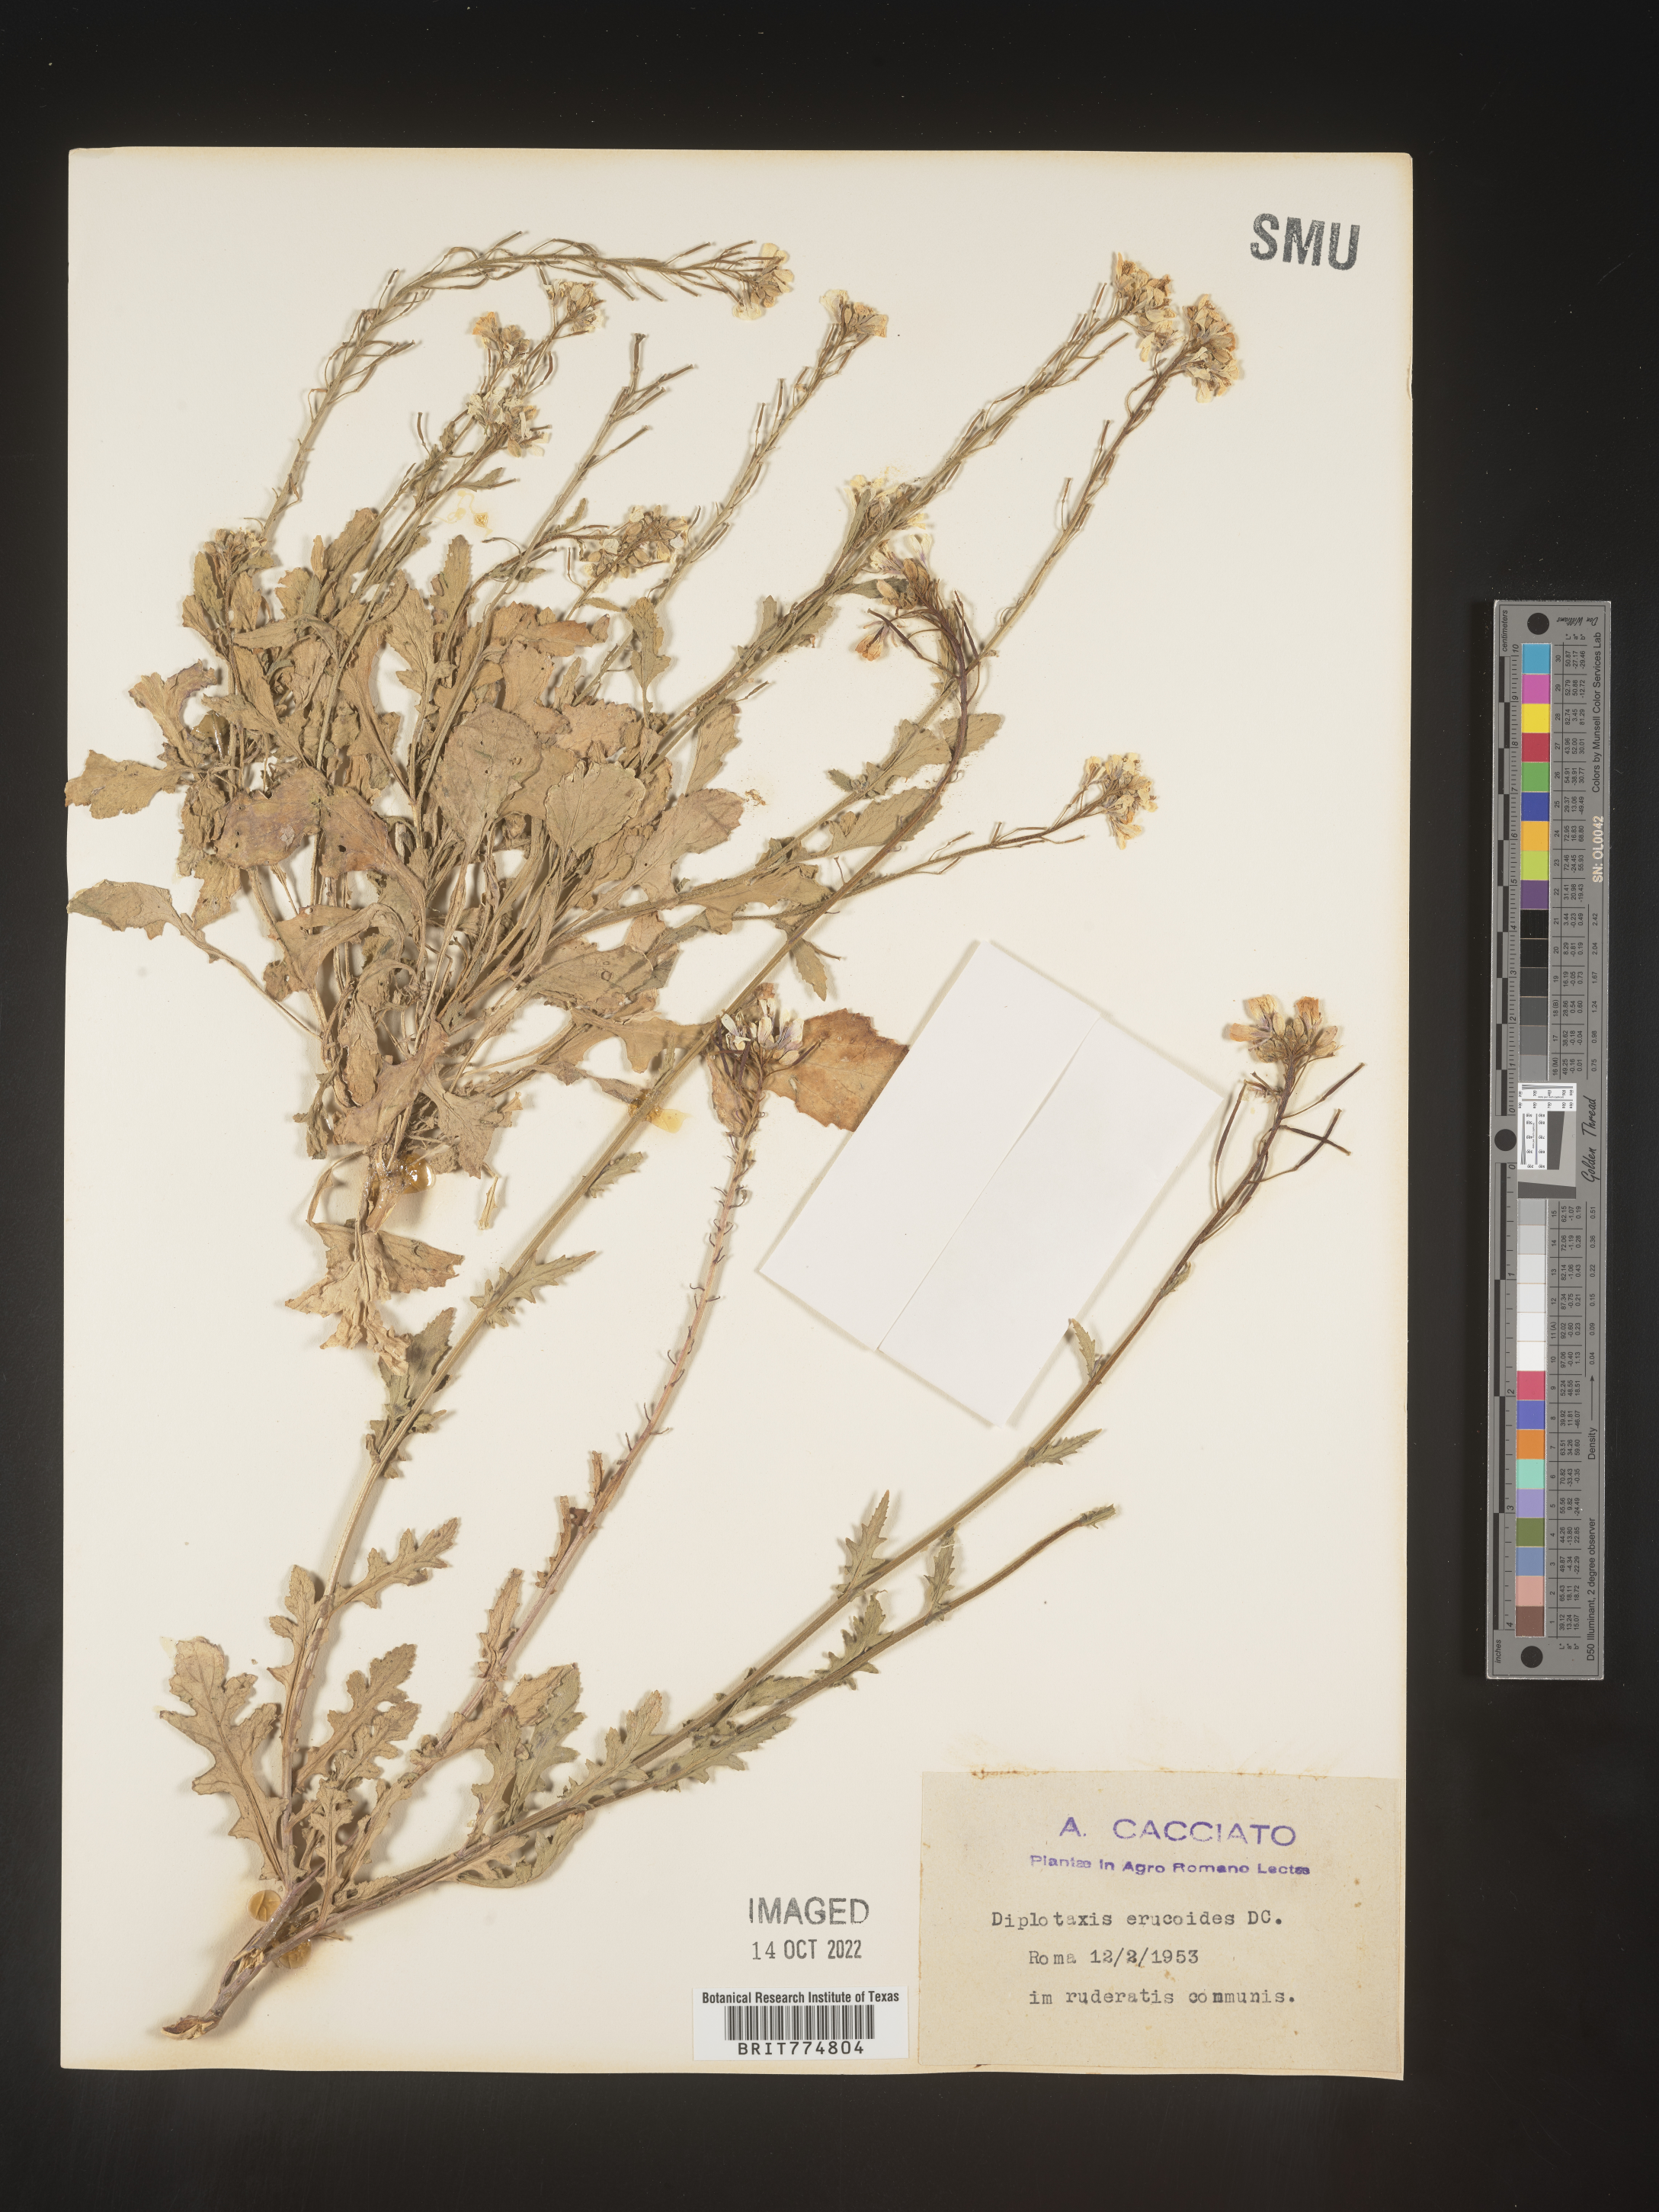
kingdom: Plantae
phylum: Tracheophyta
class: Magnoliopsida
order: Brassicales
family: Brassicaceae
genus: Diplotaxis
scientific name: Diplotaxis
